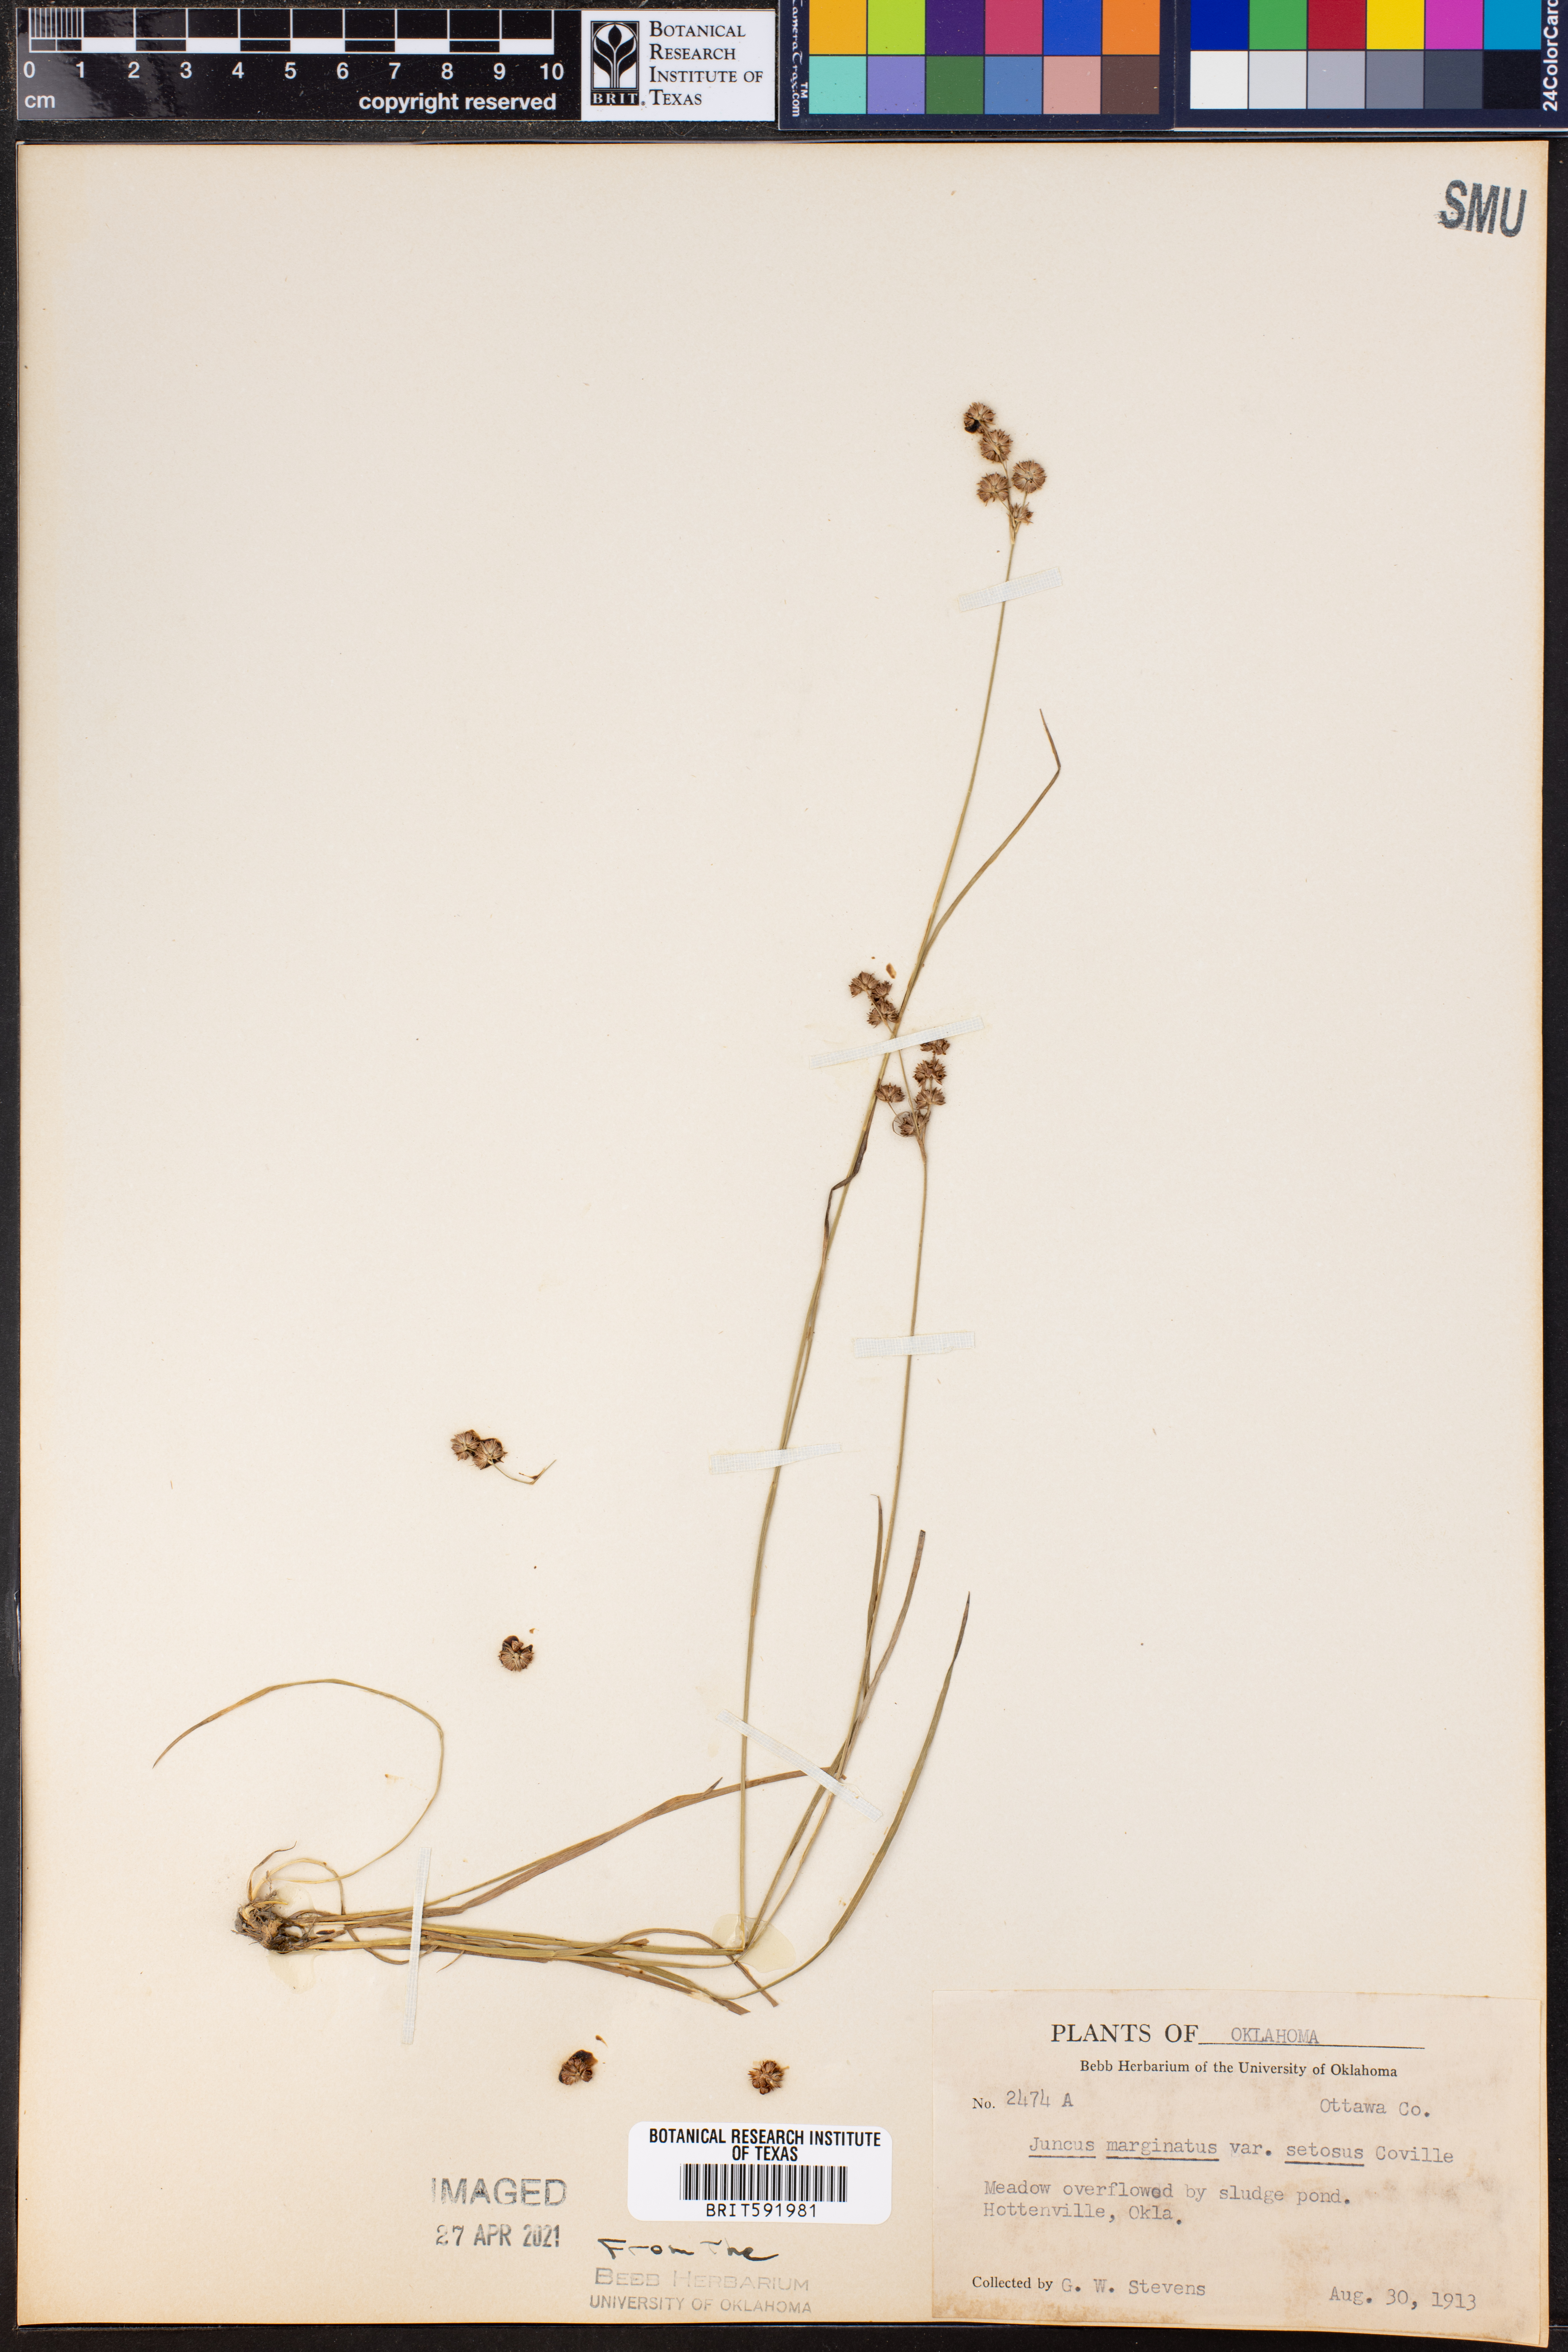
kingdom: Plantae
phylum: Tracheophyta
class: Liliopsida
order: Poales
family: Juncaceae
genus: Juncus
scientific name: Juncus marginatus
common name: Grass-leaf rush
